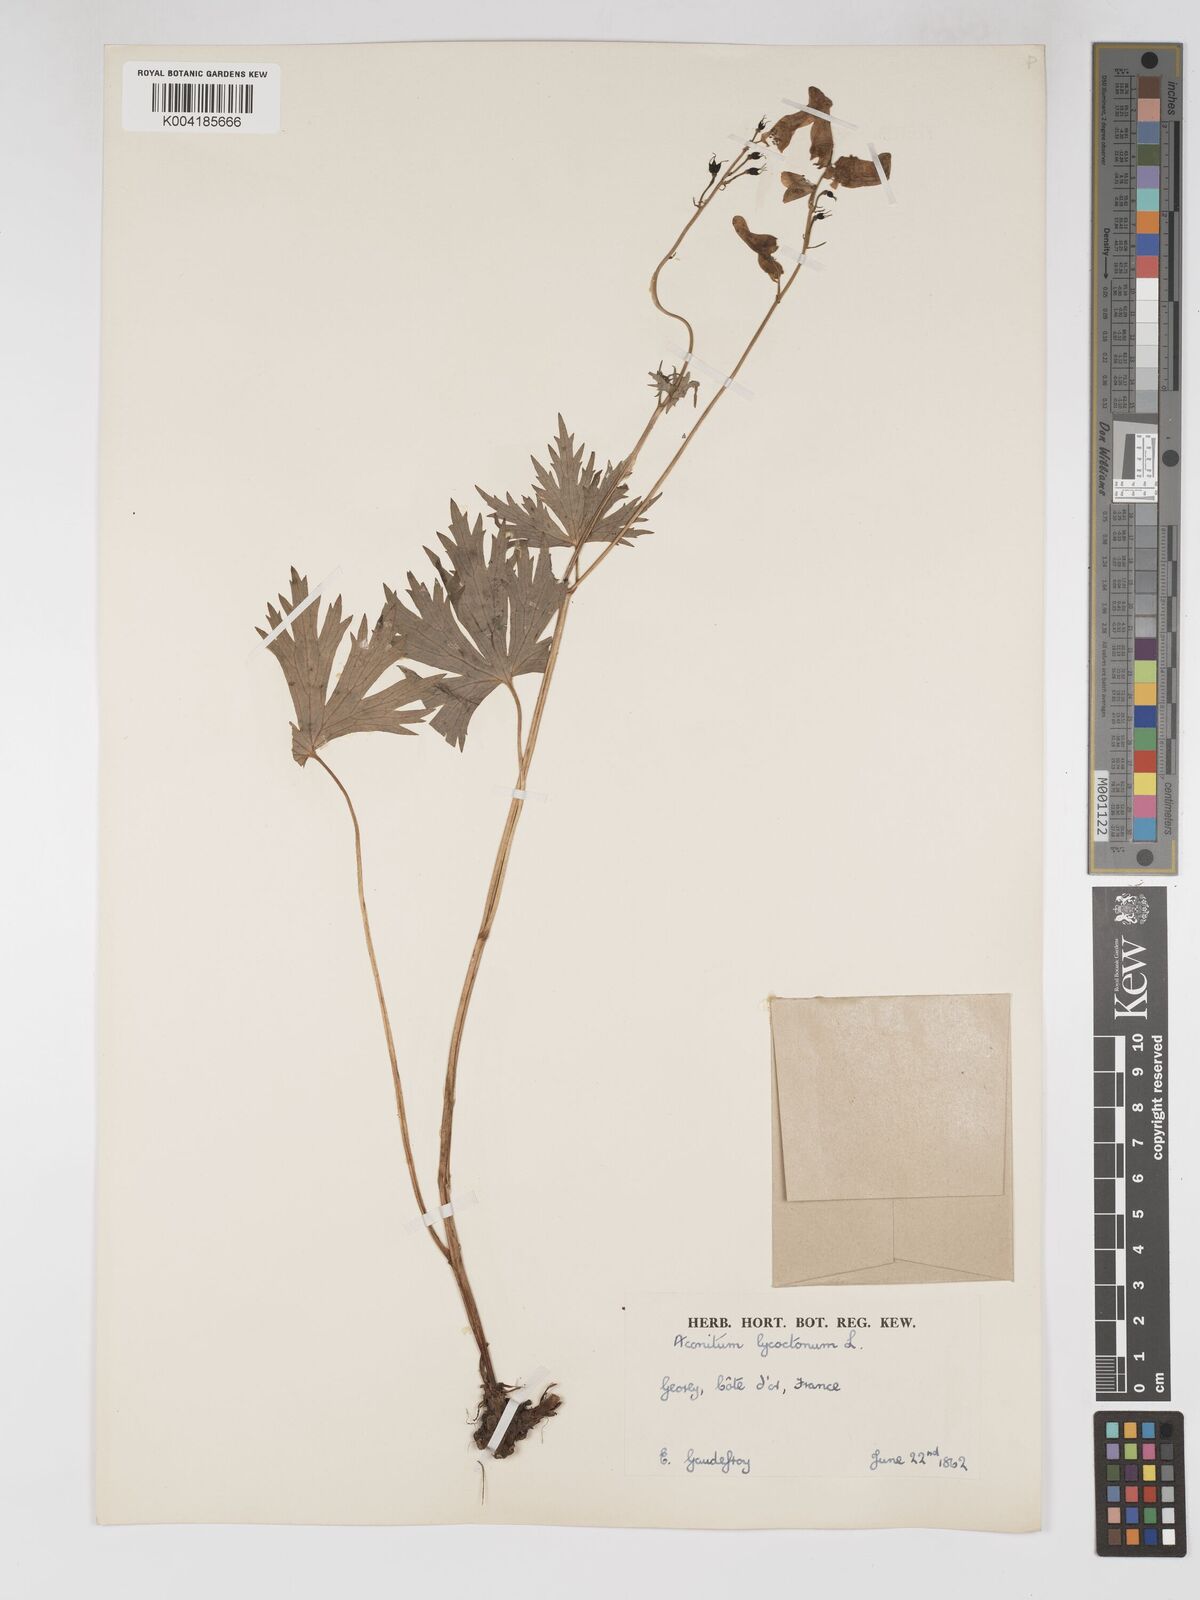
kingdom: Plantae
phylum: Tracheophyta
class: Magnoliopsida
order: Ranunculales
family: Ranunculaceae
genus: Aconitum
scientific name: Aconitum lycoctonum
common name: Wolf's-bane
